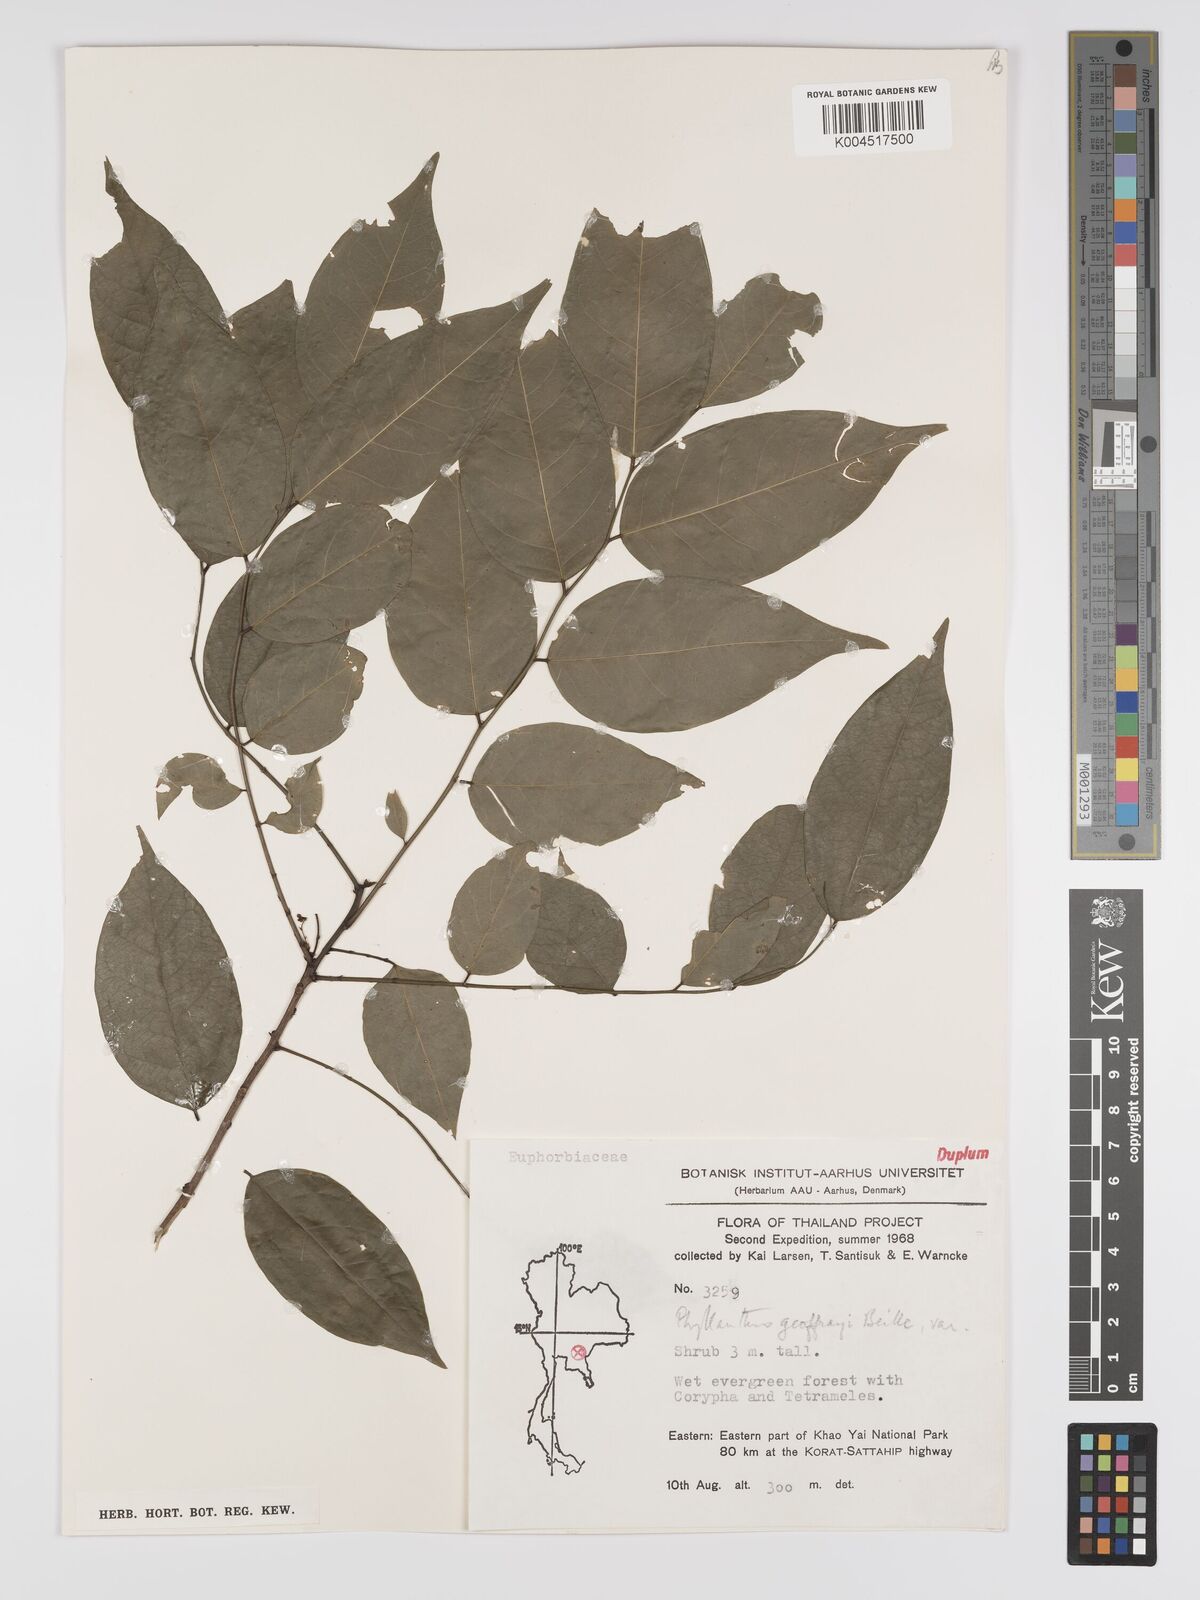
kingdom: Plantae
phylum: Tracheophyta
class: Magnoliopsida
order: Malpighiales
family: Phyllanthaceae
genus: Phyllanthus
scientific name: Phyllanthus geoffrayi
